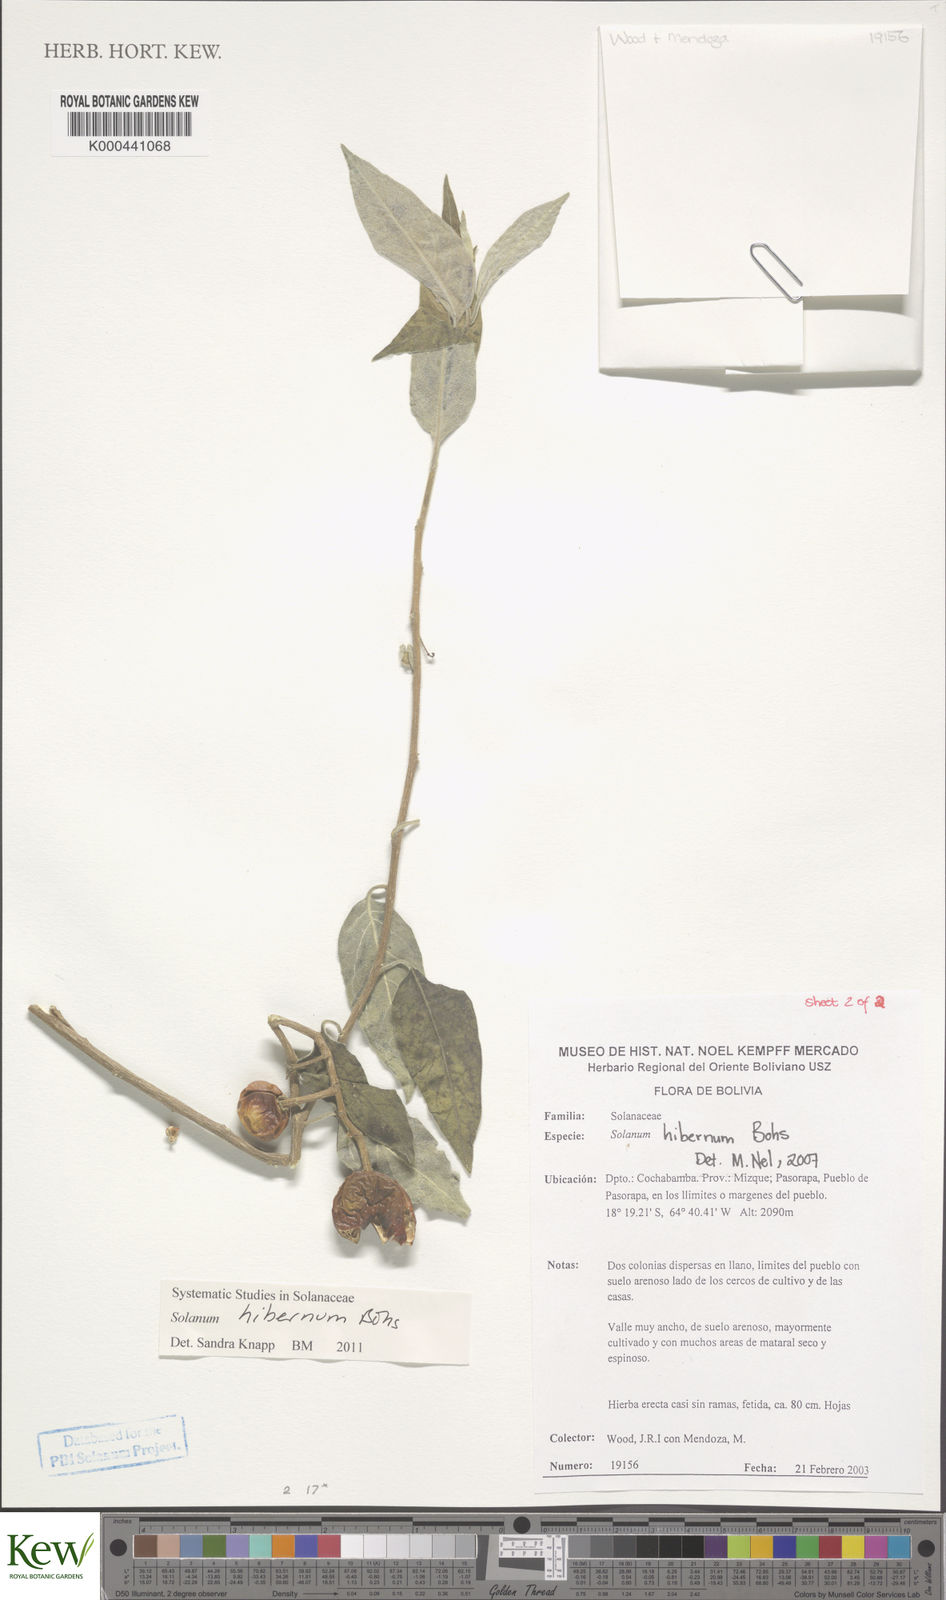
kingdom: Plantae
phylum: Tracheophyta
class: Magnoliopsida
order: Solanales
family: Solanaceae
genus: Solanum
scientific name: Solanum hibernum
